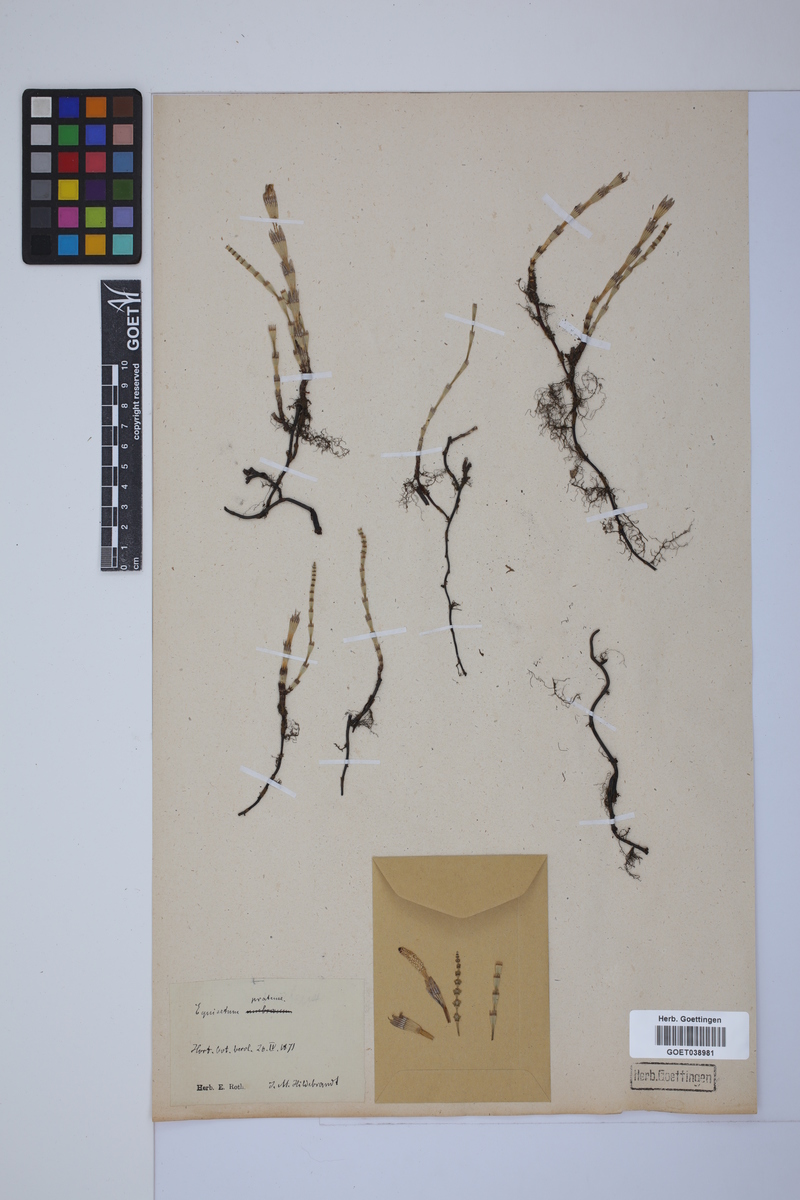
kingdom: Plantae
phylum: Tracheophyta
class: Polypodiopsida
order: Equisetales
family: Equisetaceae
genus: Equisetum
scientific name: Equisetum pratense
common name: Meadow horsetail
